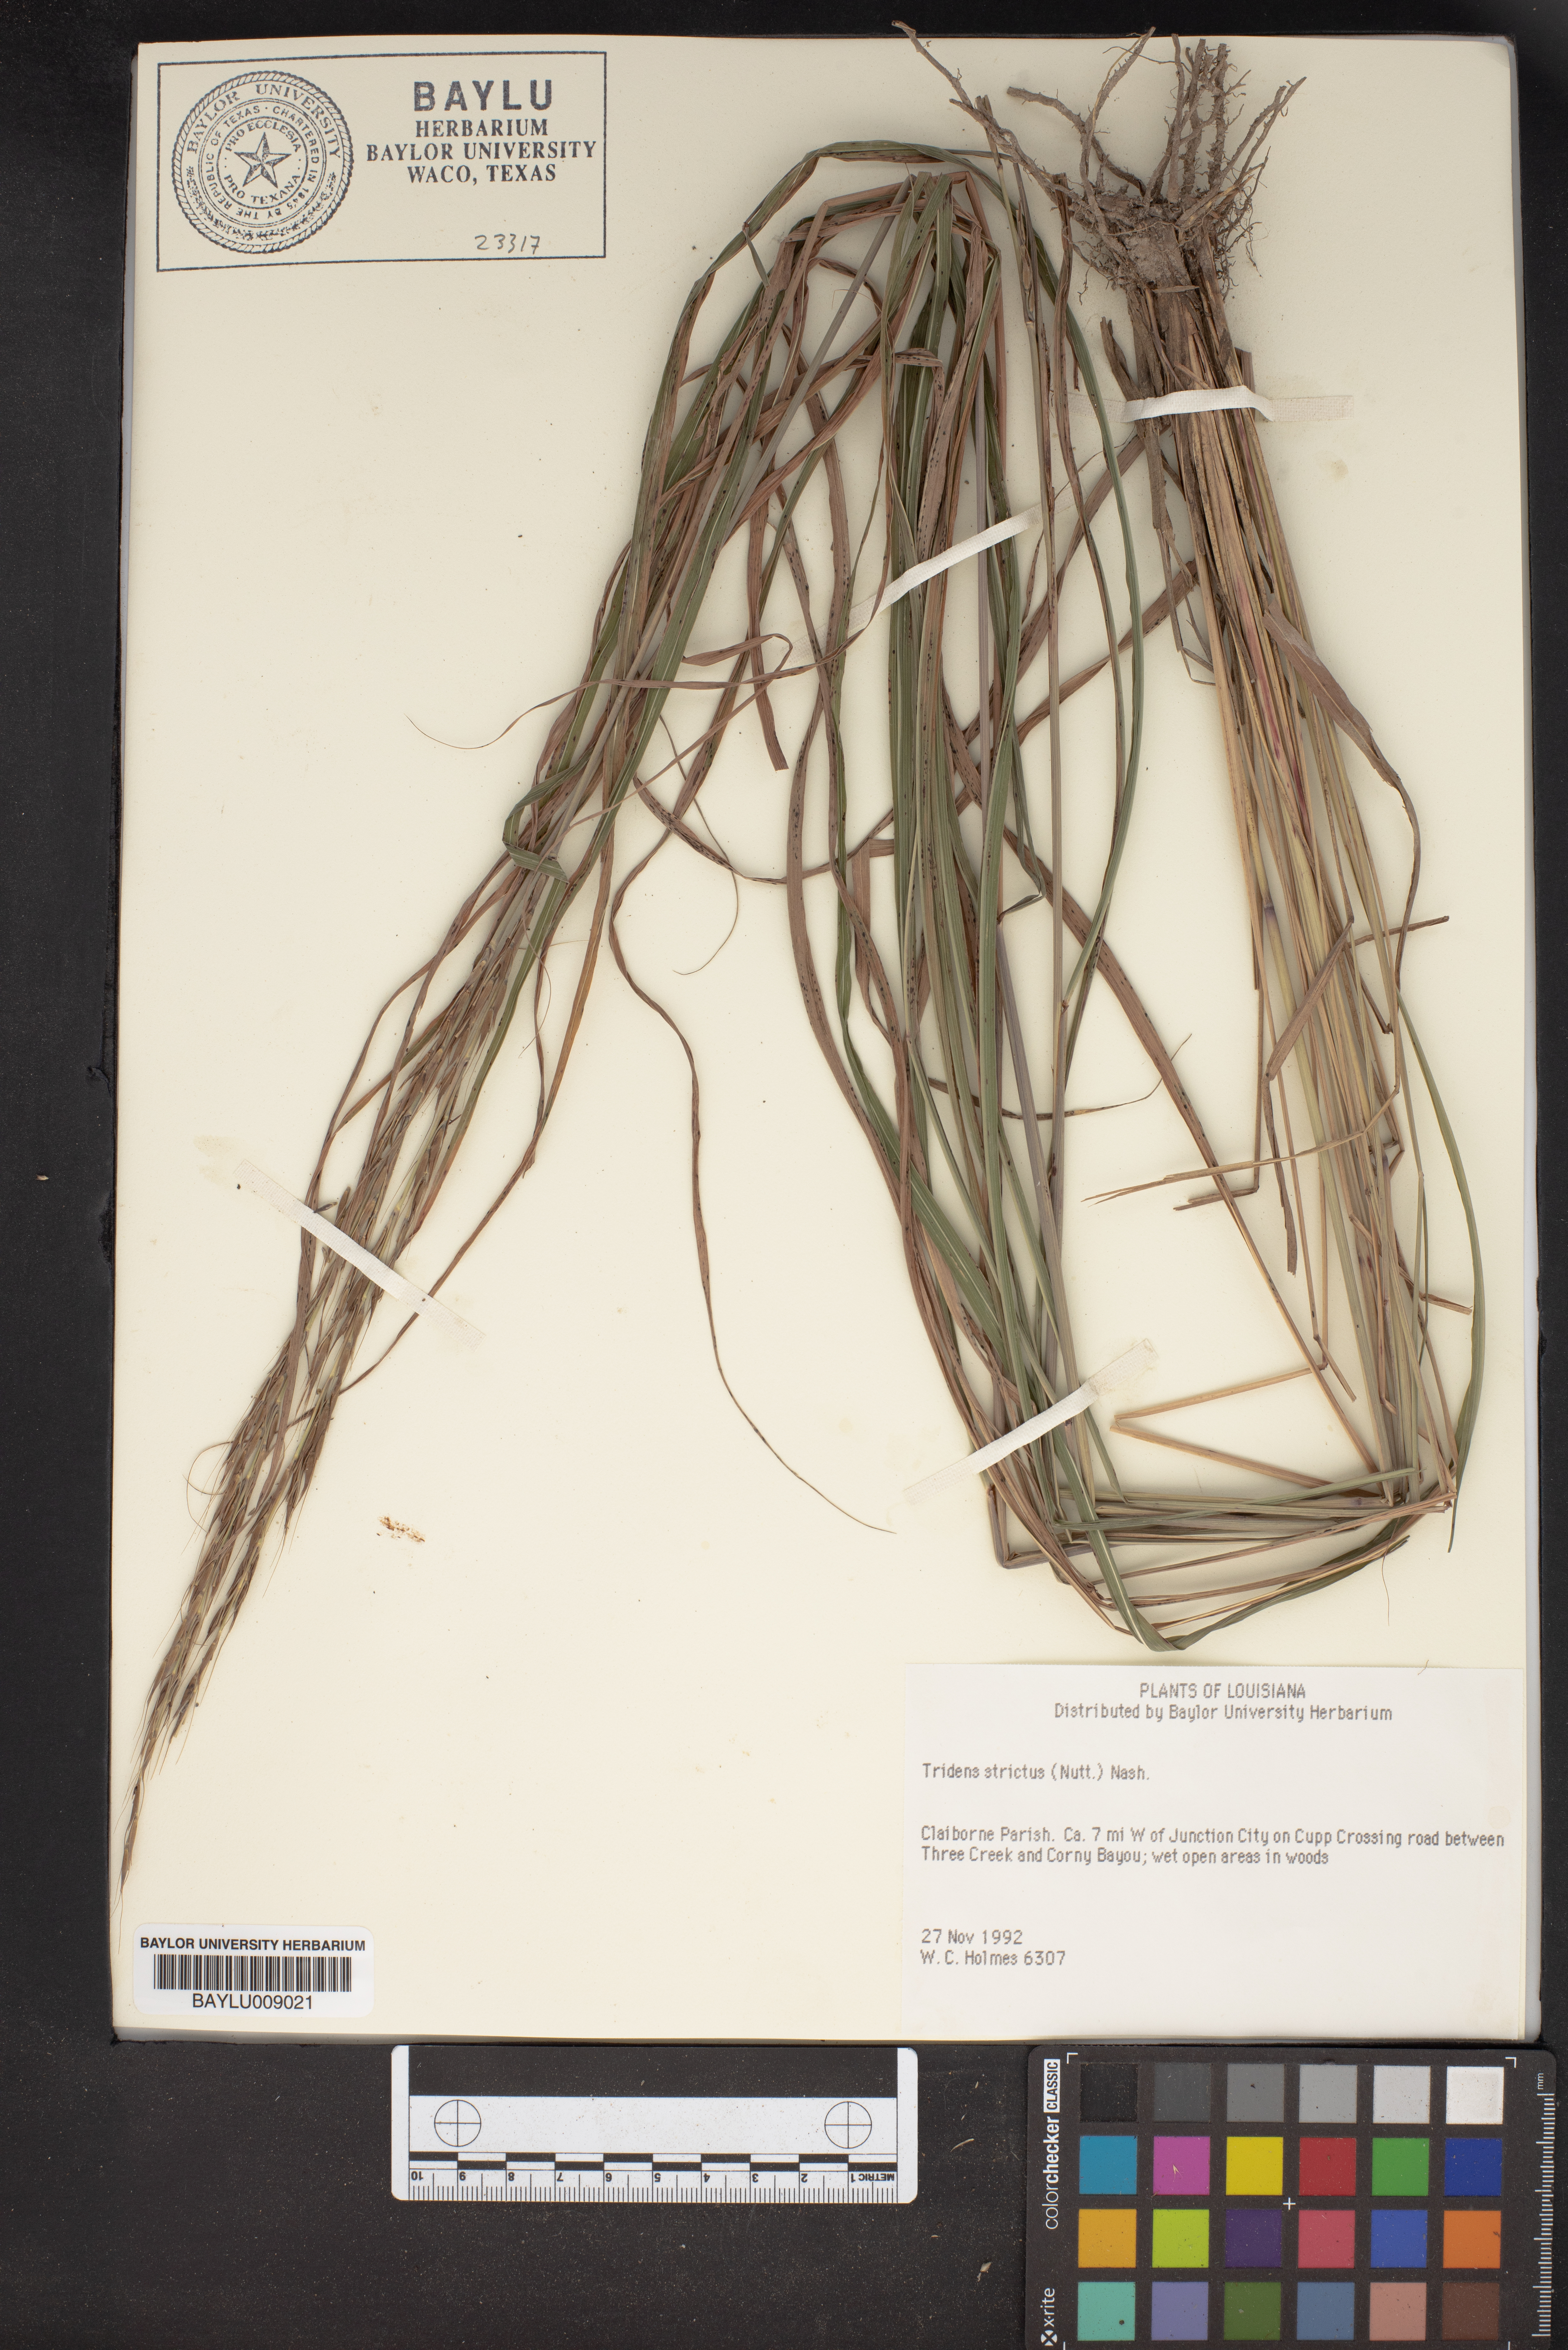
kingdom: Plantae
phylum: Tracheophyta
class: Liliopsida
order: Poales
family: Poaceae
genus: Tridens
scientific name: Tridens strictus
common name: Long-spike tridens
